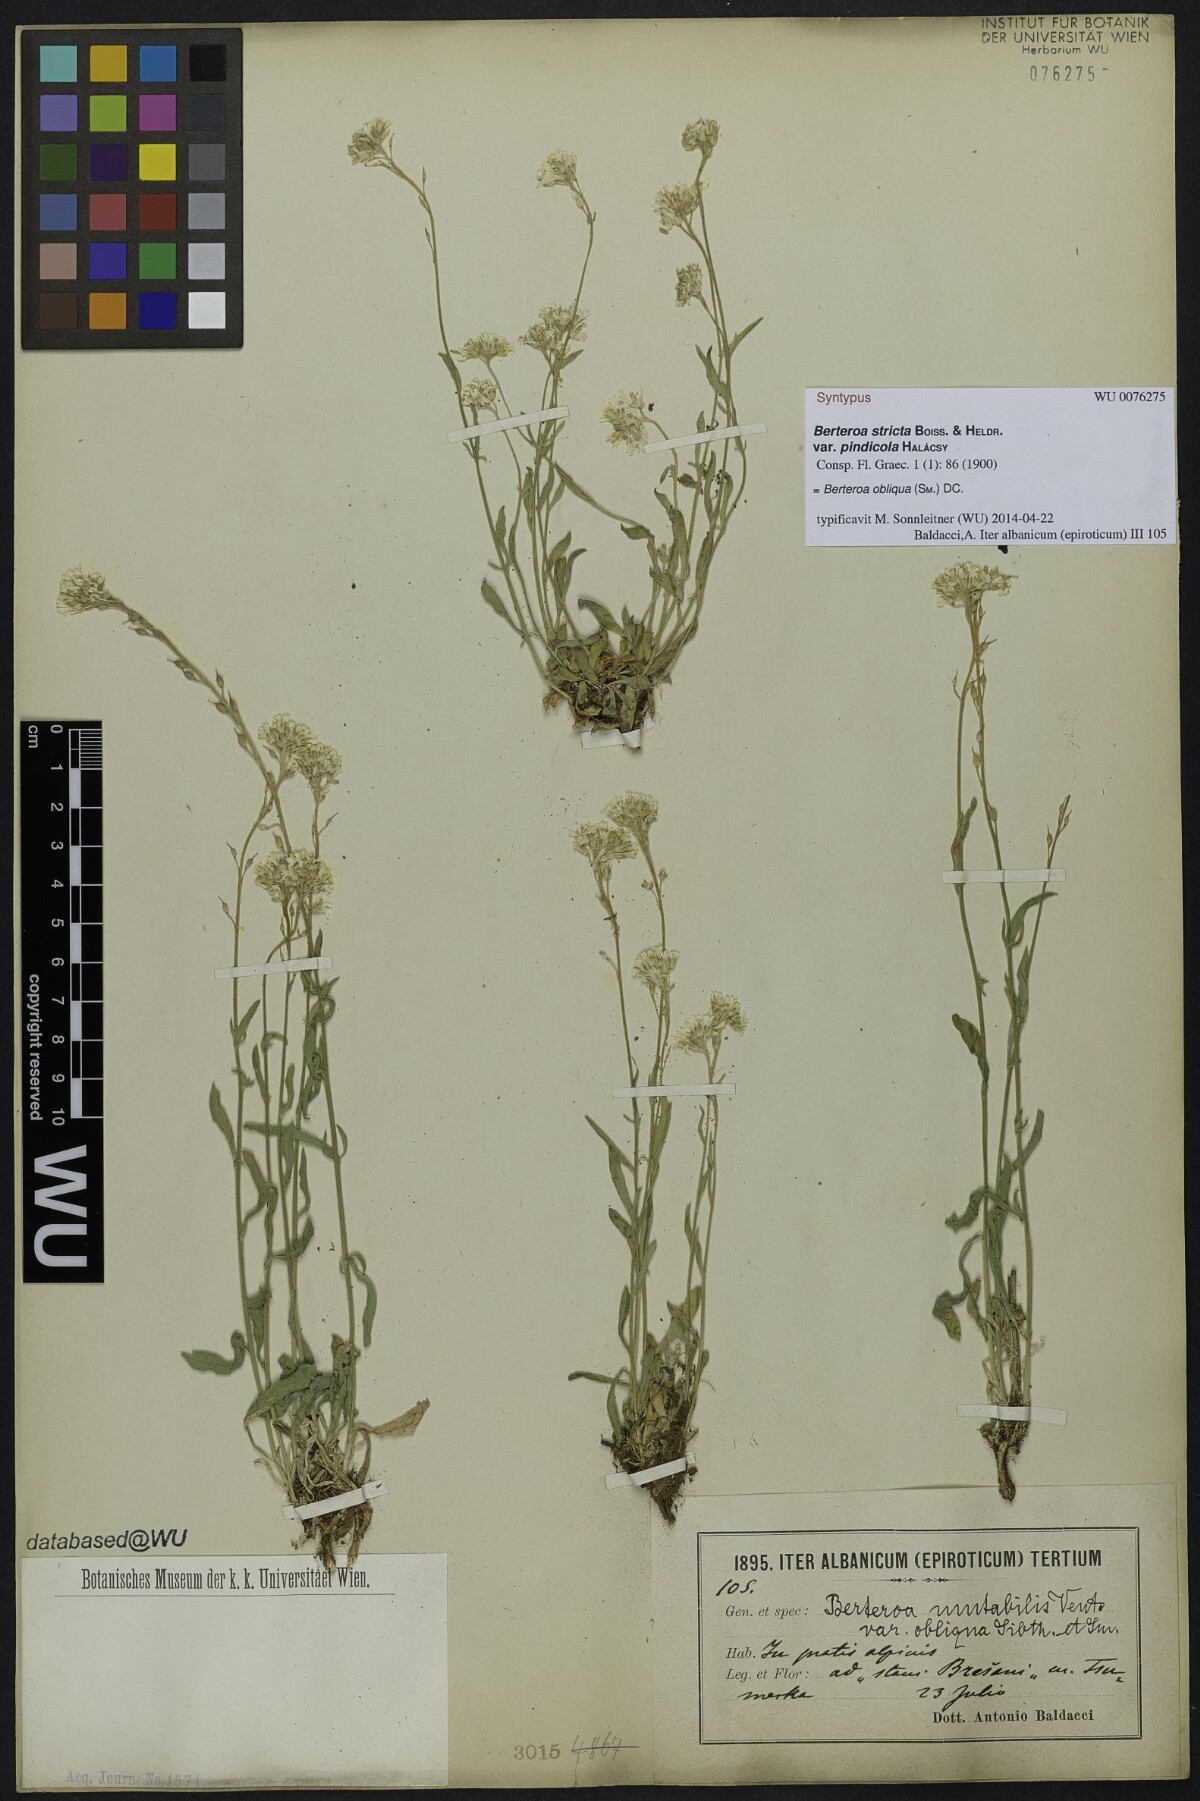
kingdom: Plantae
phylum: Tracheophyta
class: Magnoliopsida
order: Brassicales
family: Brassicaceae
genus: Berteroa
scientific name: Berteroa incana
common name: Hoary alison
